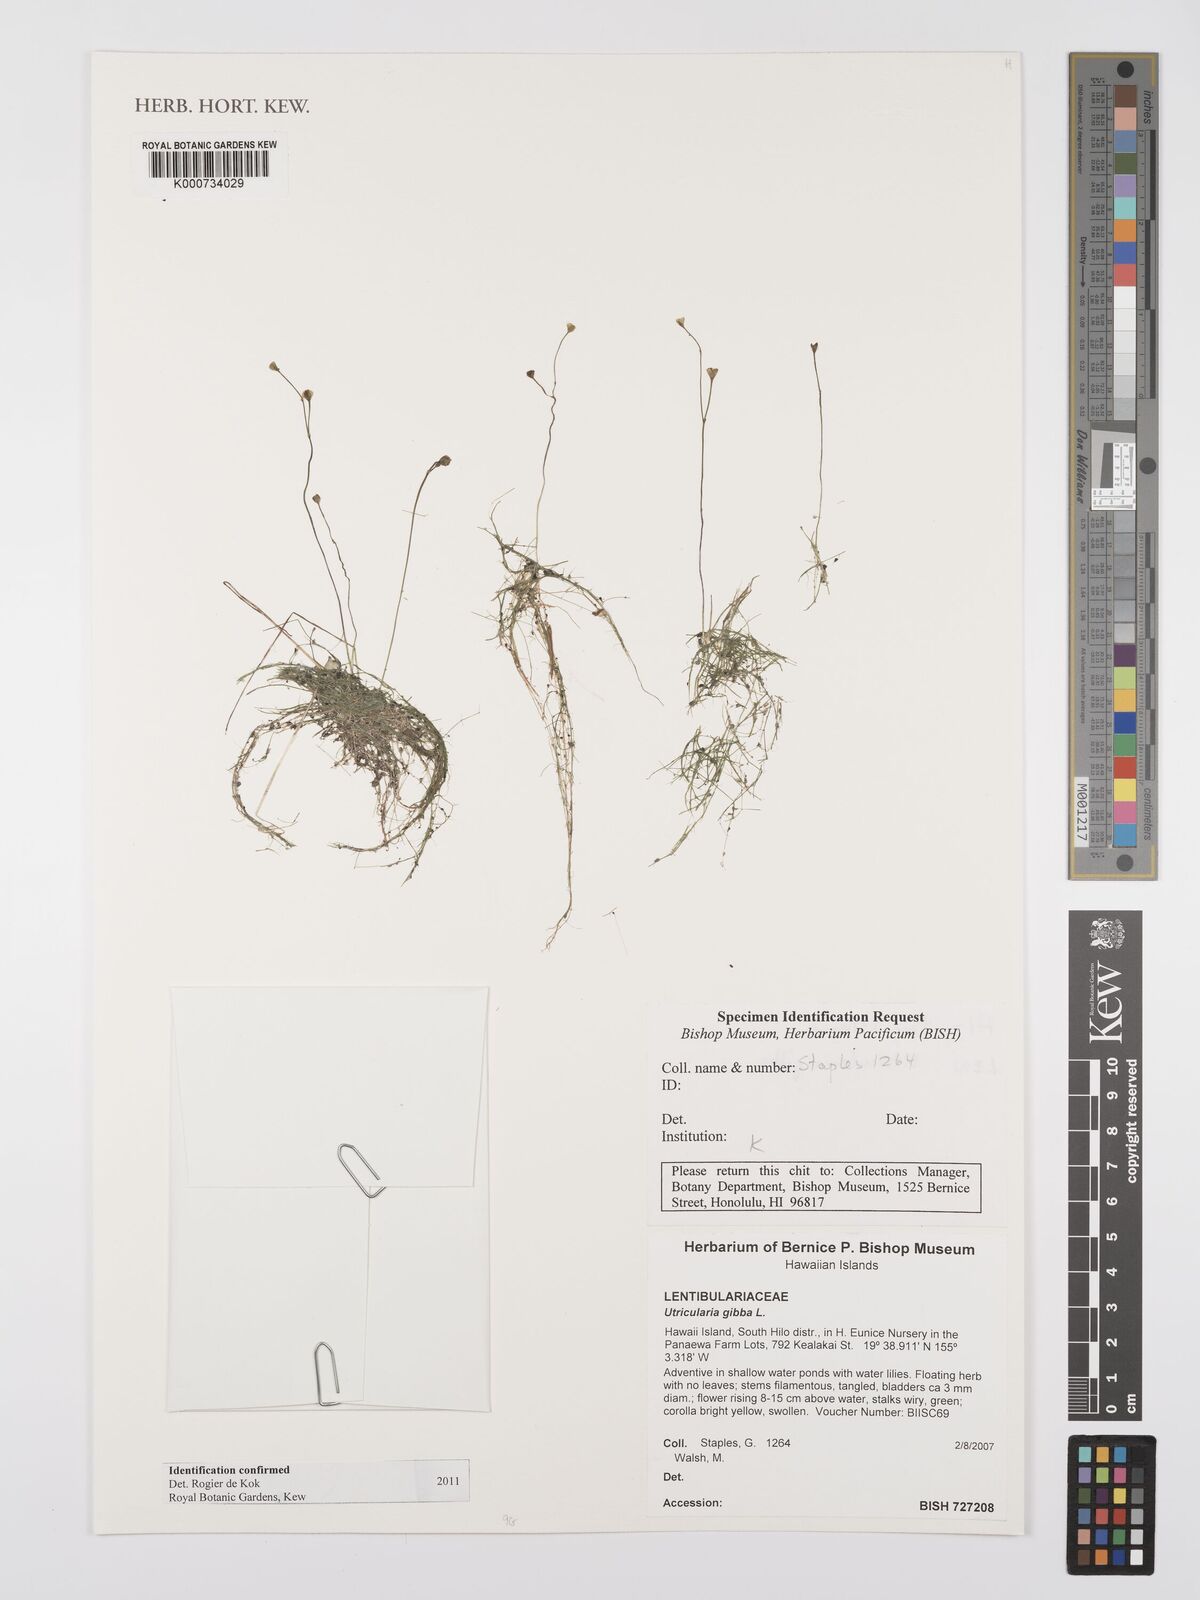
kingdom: Plantae
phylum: Tracheophyta
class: Magnoliopsida
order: Lamiales
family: Lentibulariaceae
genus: Utricularia
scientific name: Utricularia gibba
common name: Humped bladderwort
